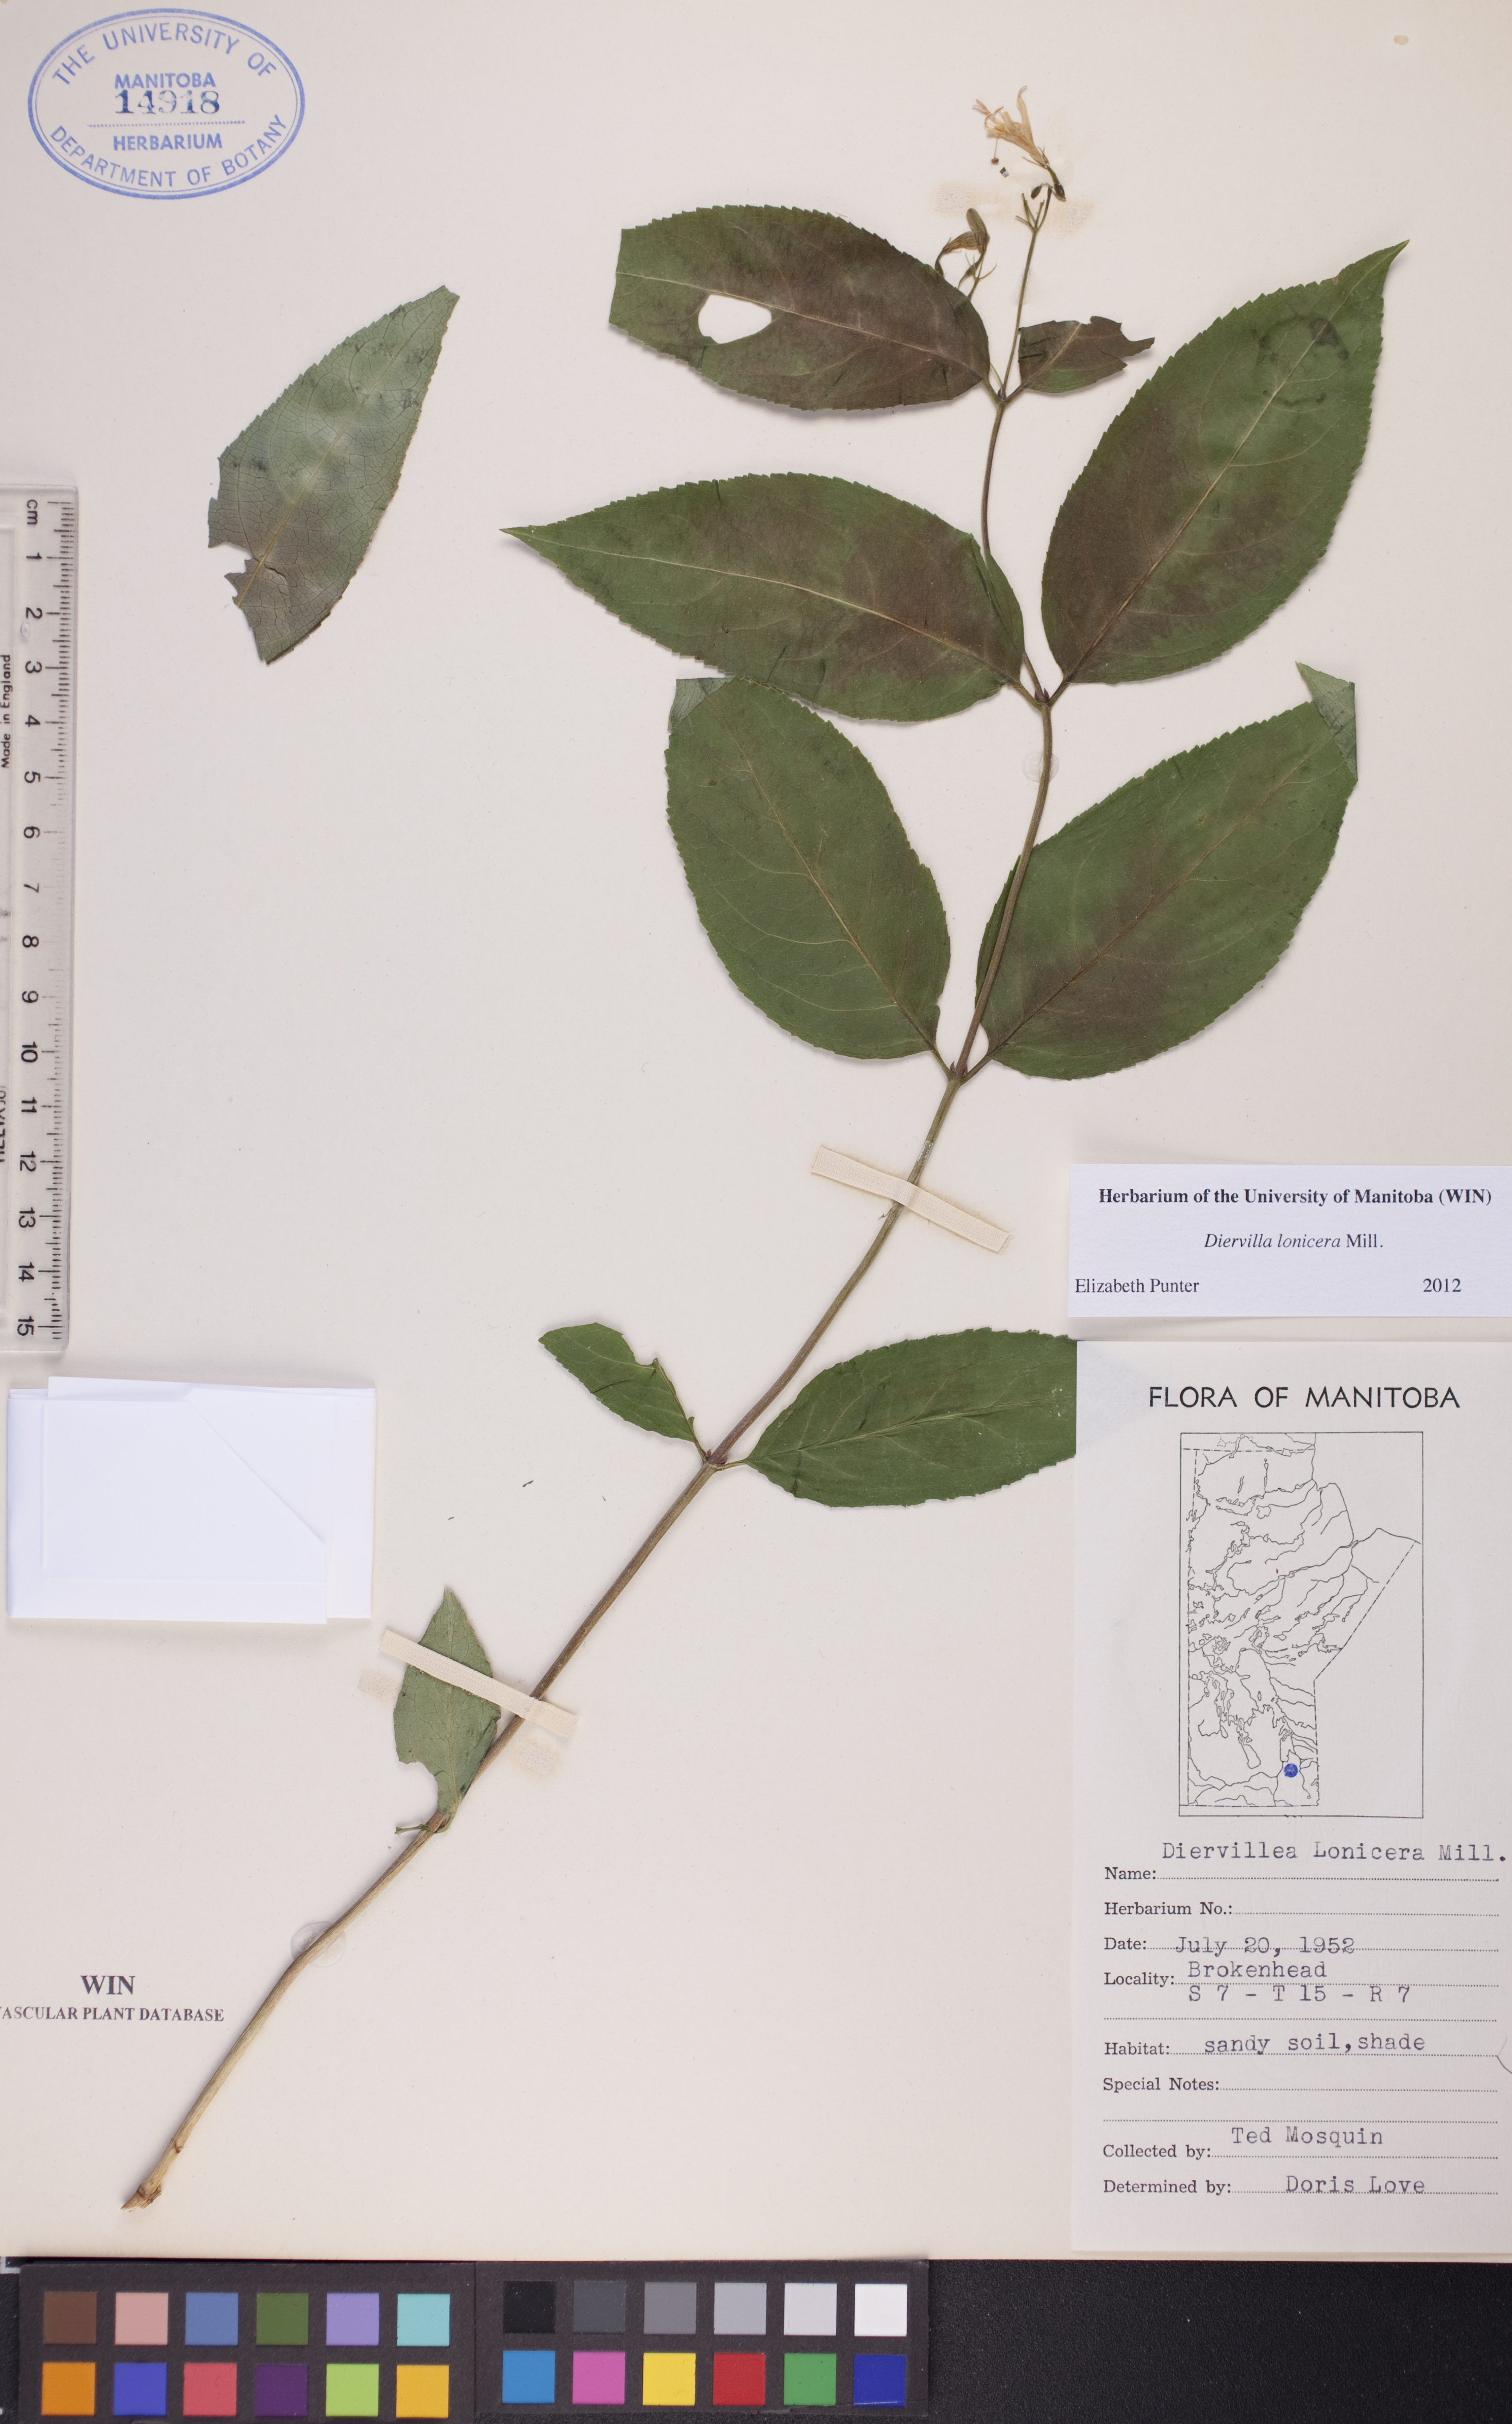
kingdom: Plantae
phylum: Tracheophyta
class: Magnoliopsida
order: Dipsacales
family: Caprifoliaceae
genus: Diervilla
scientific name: Diervilla lonicera
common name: Bush-honeysuckle
